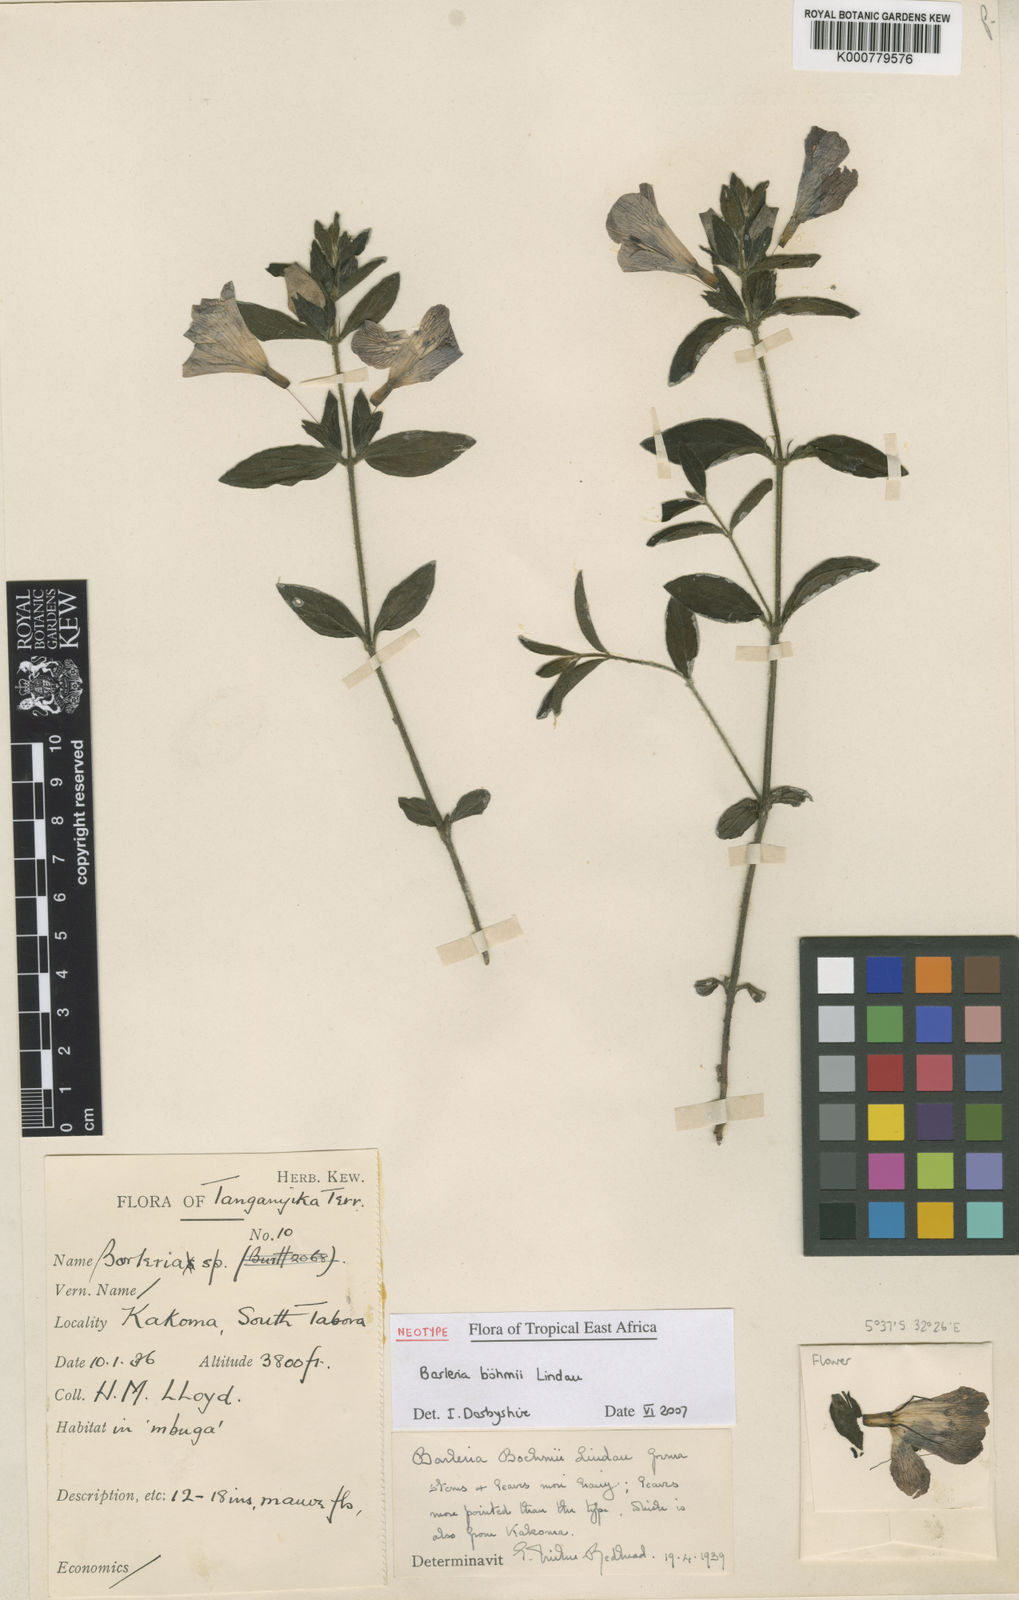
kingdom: Plantae
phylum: Tracheophyta
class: Magnoliopsida
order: Lamiales
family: Acanthaceae
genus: Barleria
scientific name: Barleria boehmii
